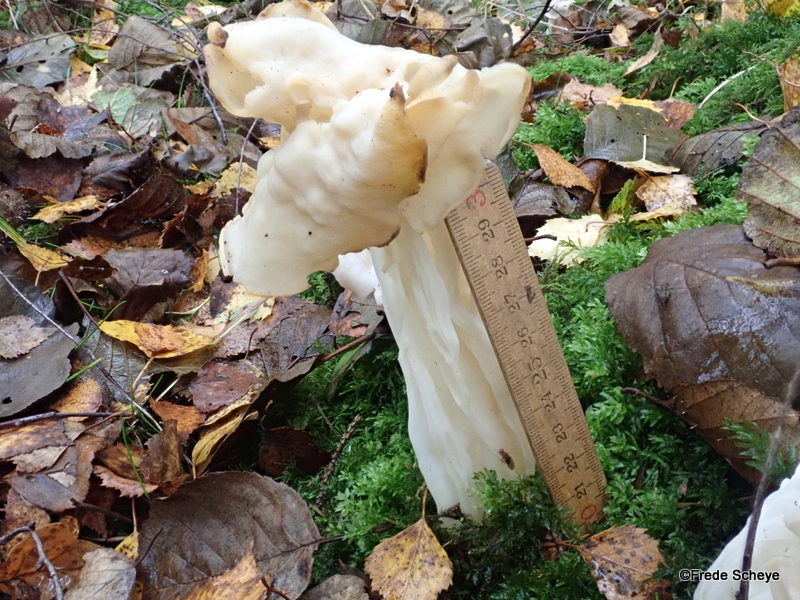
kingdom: Fungi
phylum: Ascomycota
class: Pezizomycetes
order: Pezizales
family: Helvellaceae
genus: Helvella
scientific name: Helvella crispa
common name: kruset foldhat
